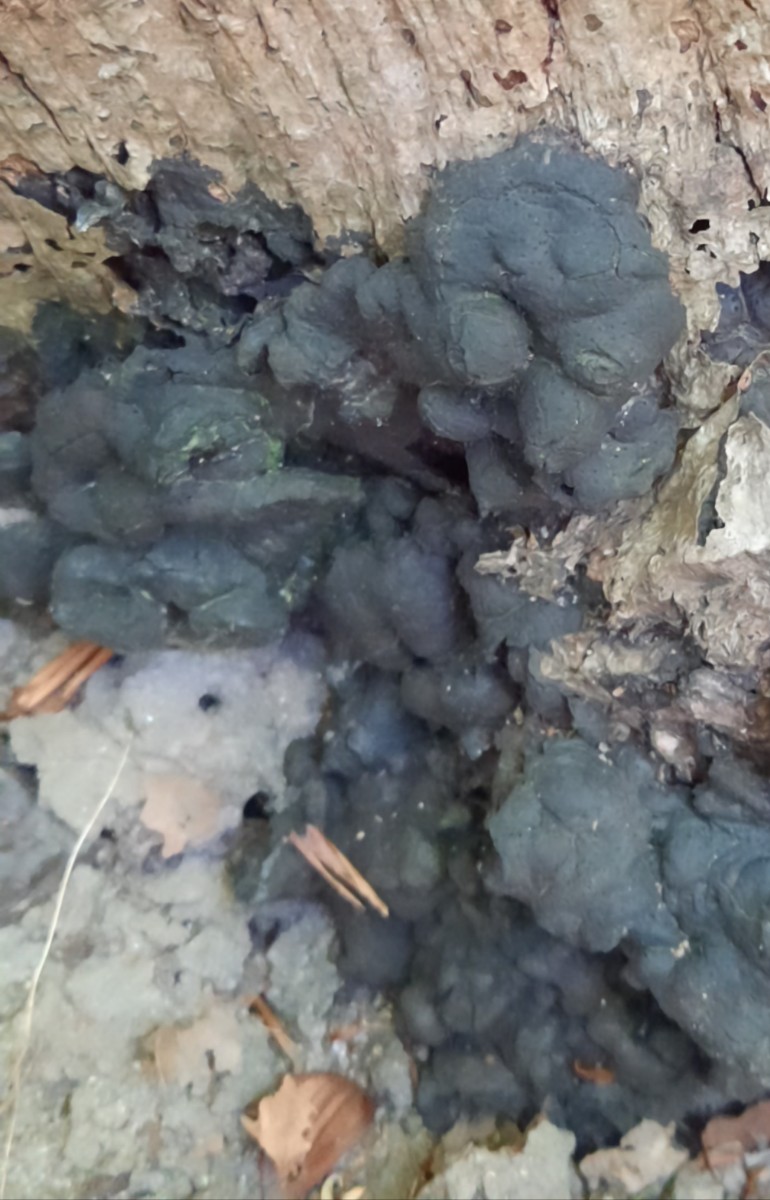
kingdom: Fungi
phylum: Ascomycota
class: Sordariomycetes
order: Xylariales
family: Xylariaceae
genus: Kretzschmaria
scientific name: Kretzschmaria deusta
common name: stor kulsvamp
